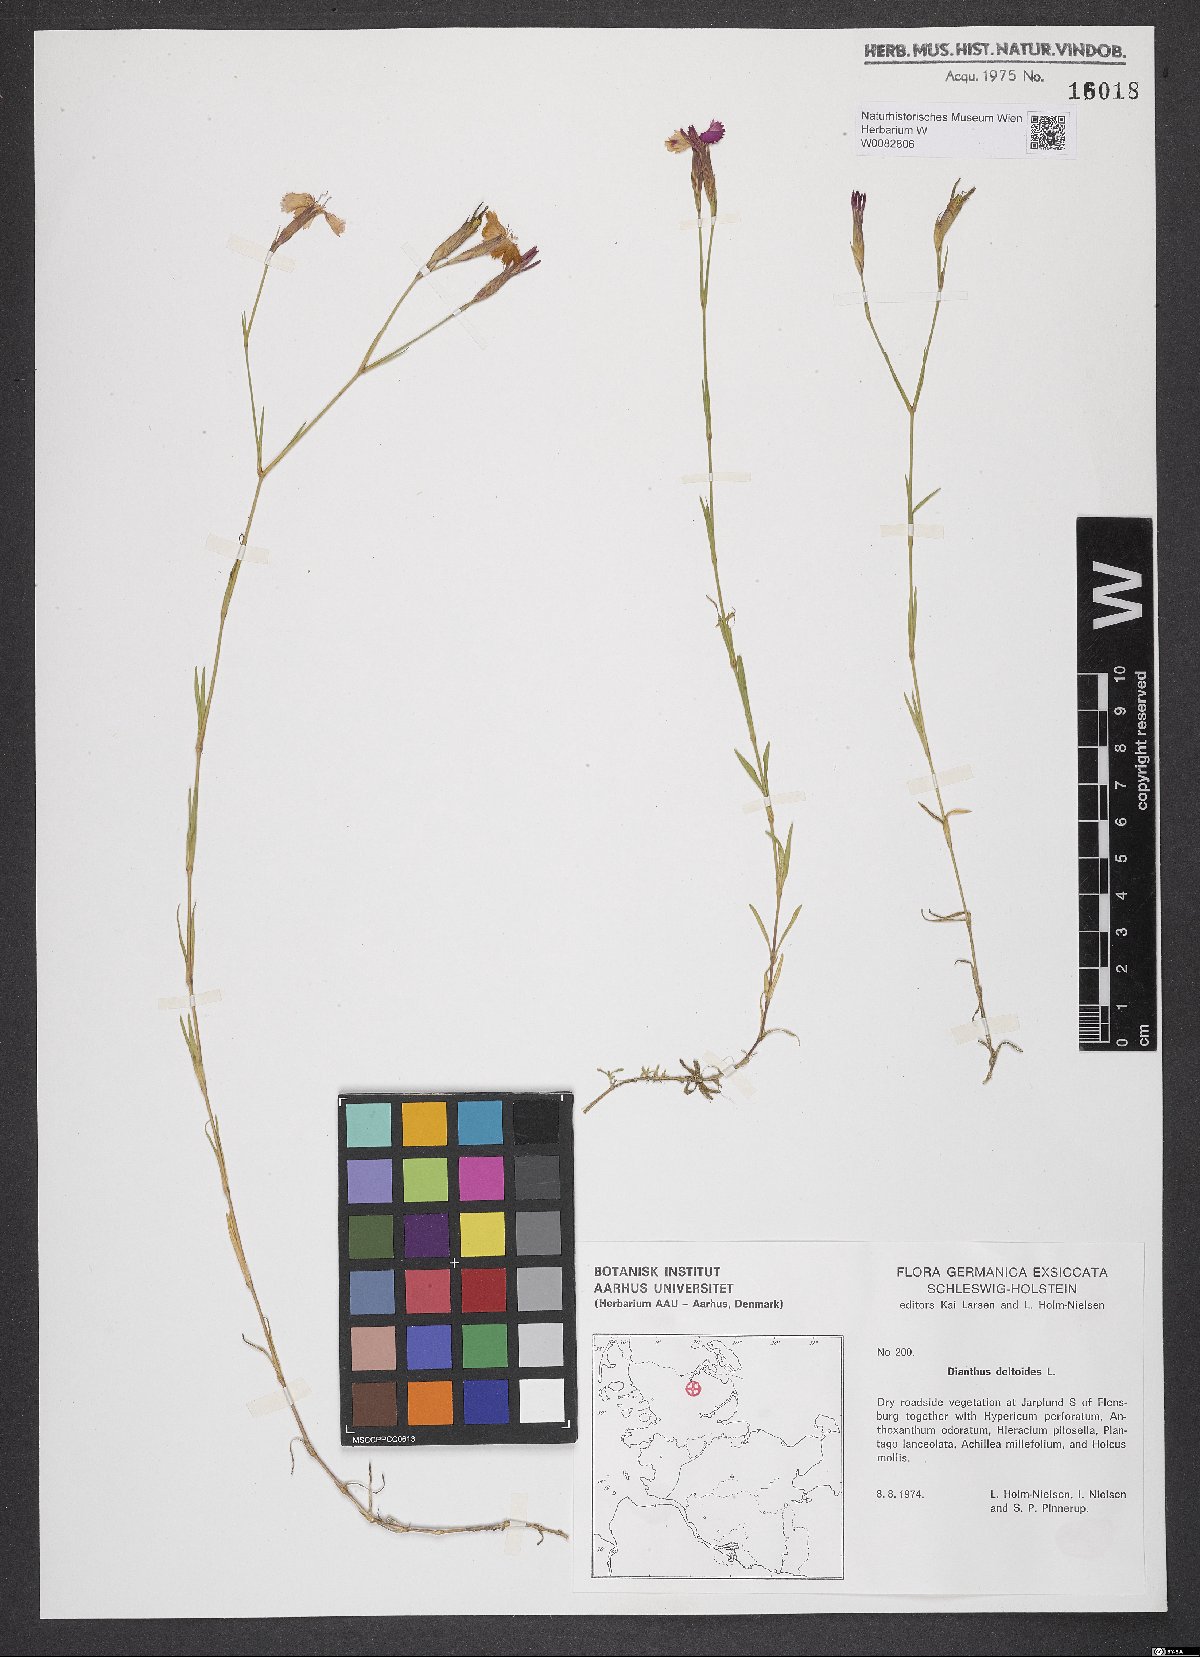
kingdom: Plantae
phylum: Tracheophyta
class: Magnoliopsida
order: Caryophyllales
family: Caryophyllaceae
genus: Dianthus
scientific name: Dianthus deltoides
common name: Maiden pink
